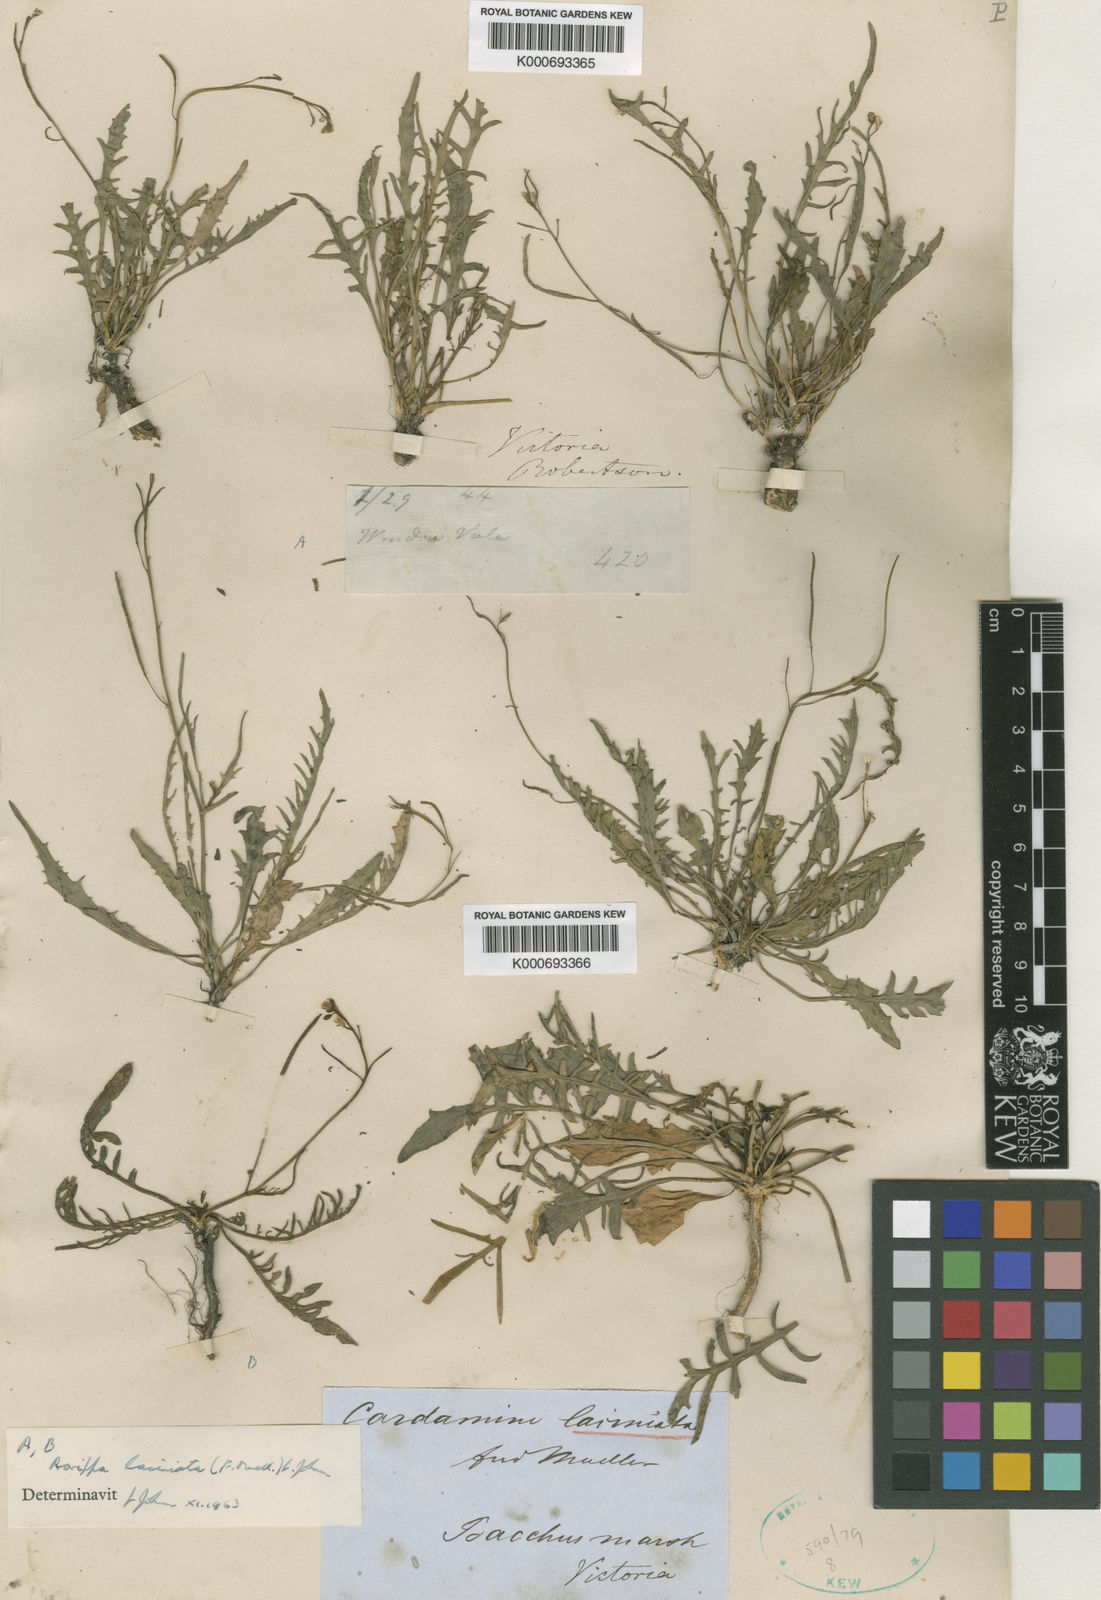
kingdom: Plantae
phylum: Tracheophyta
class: Magnoliopsida
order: Brassicales
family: Brassicaceae
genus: Rorippa
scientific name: Rorippa laciniata
